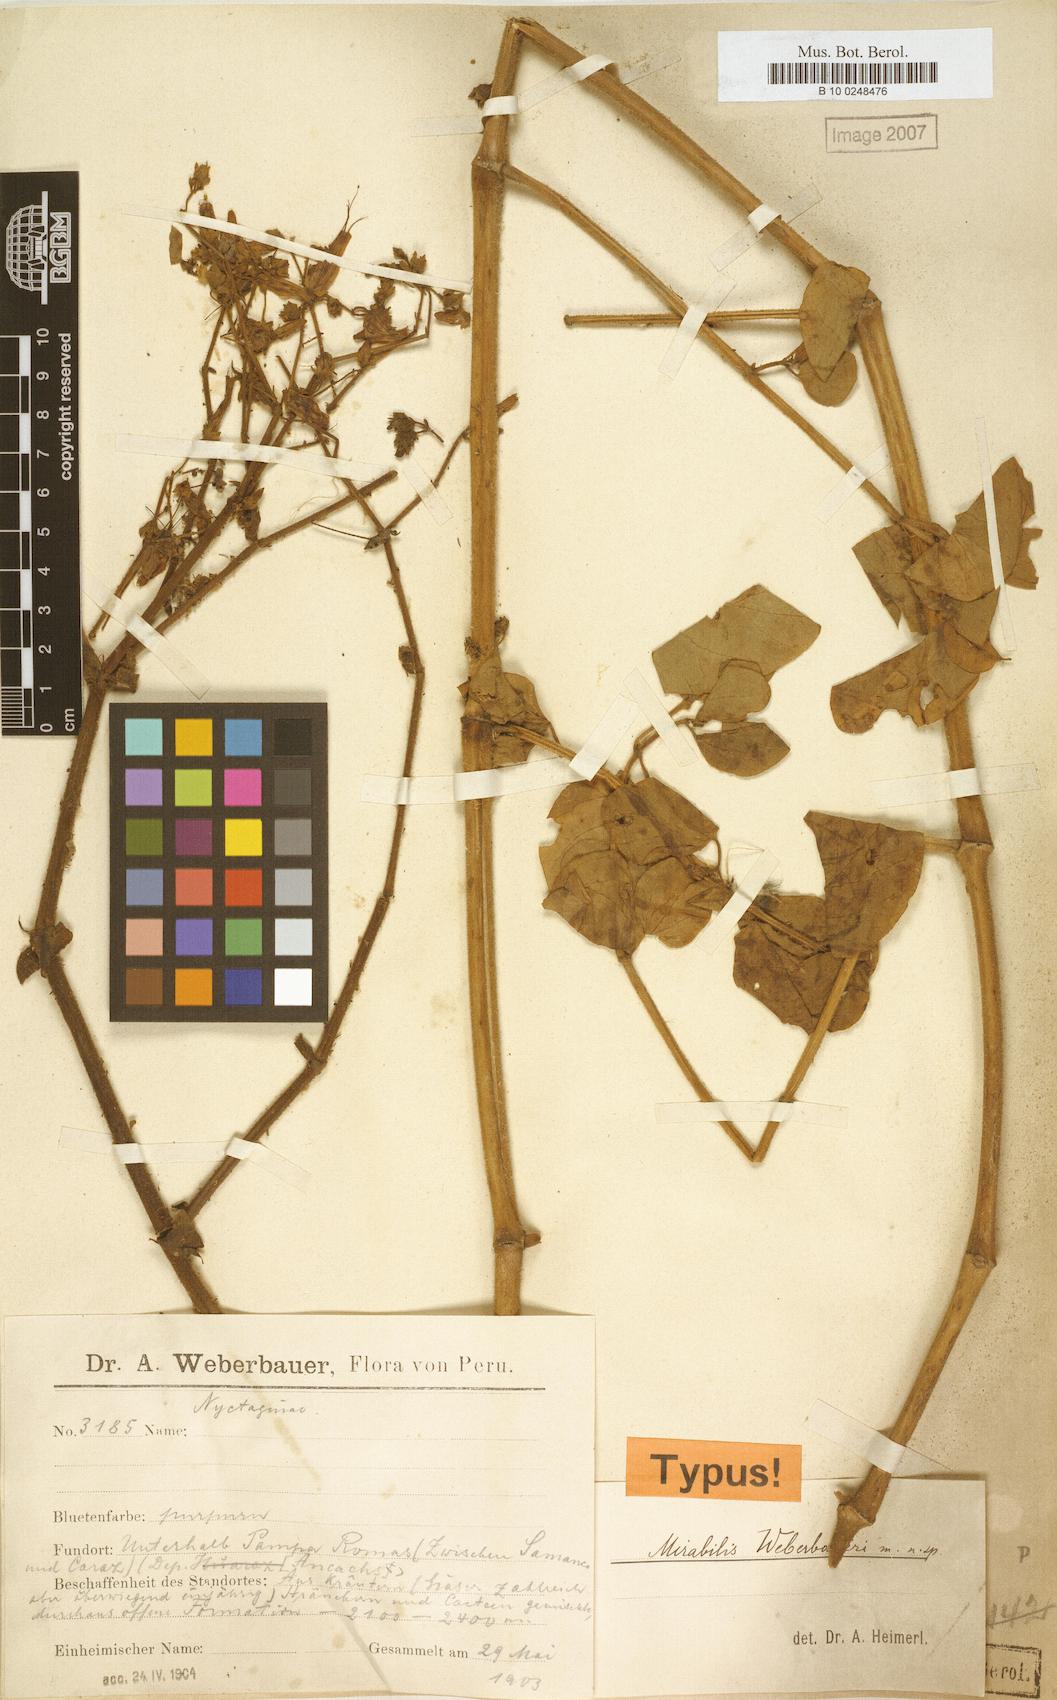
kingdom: Plantae
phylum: Tracheophyta
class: Magnoliopsida
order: Caryophyllales
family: Nyctaginaceae
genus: Mirabilis
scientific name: Mirabilis weberbaueri
